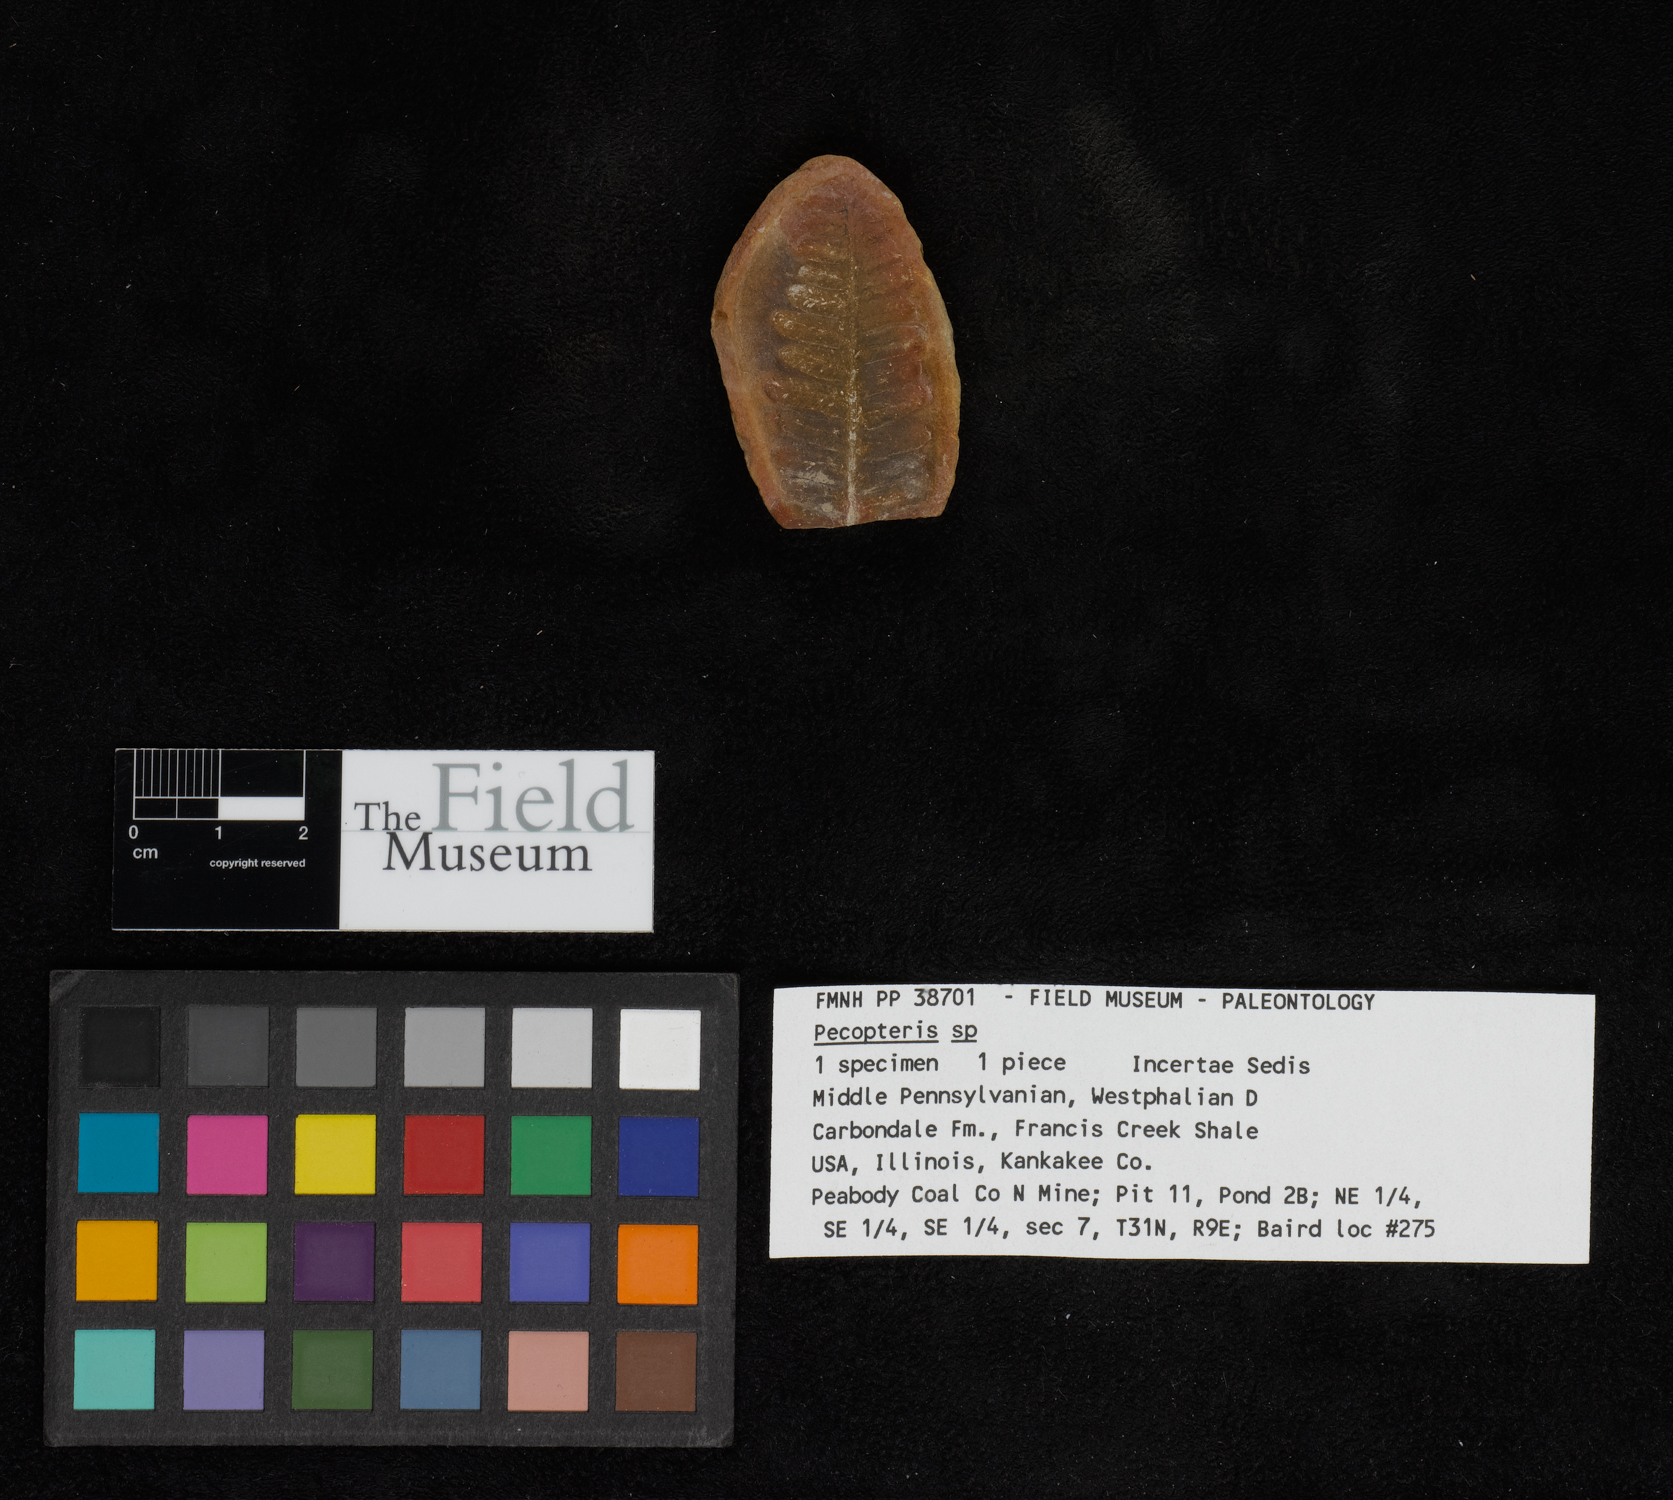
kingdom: Plantae
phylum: Tracheophyta
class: Polypodiopsida
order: Marattiales
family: Asterothecaceae
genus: Pecopteris
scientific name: Pecopteris
